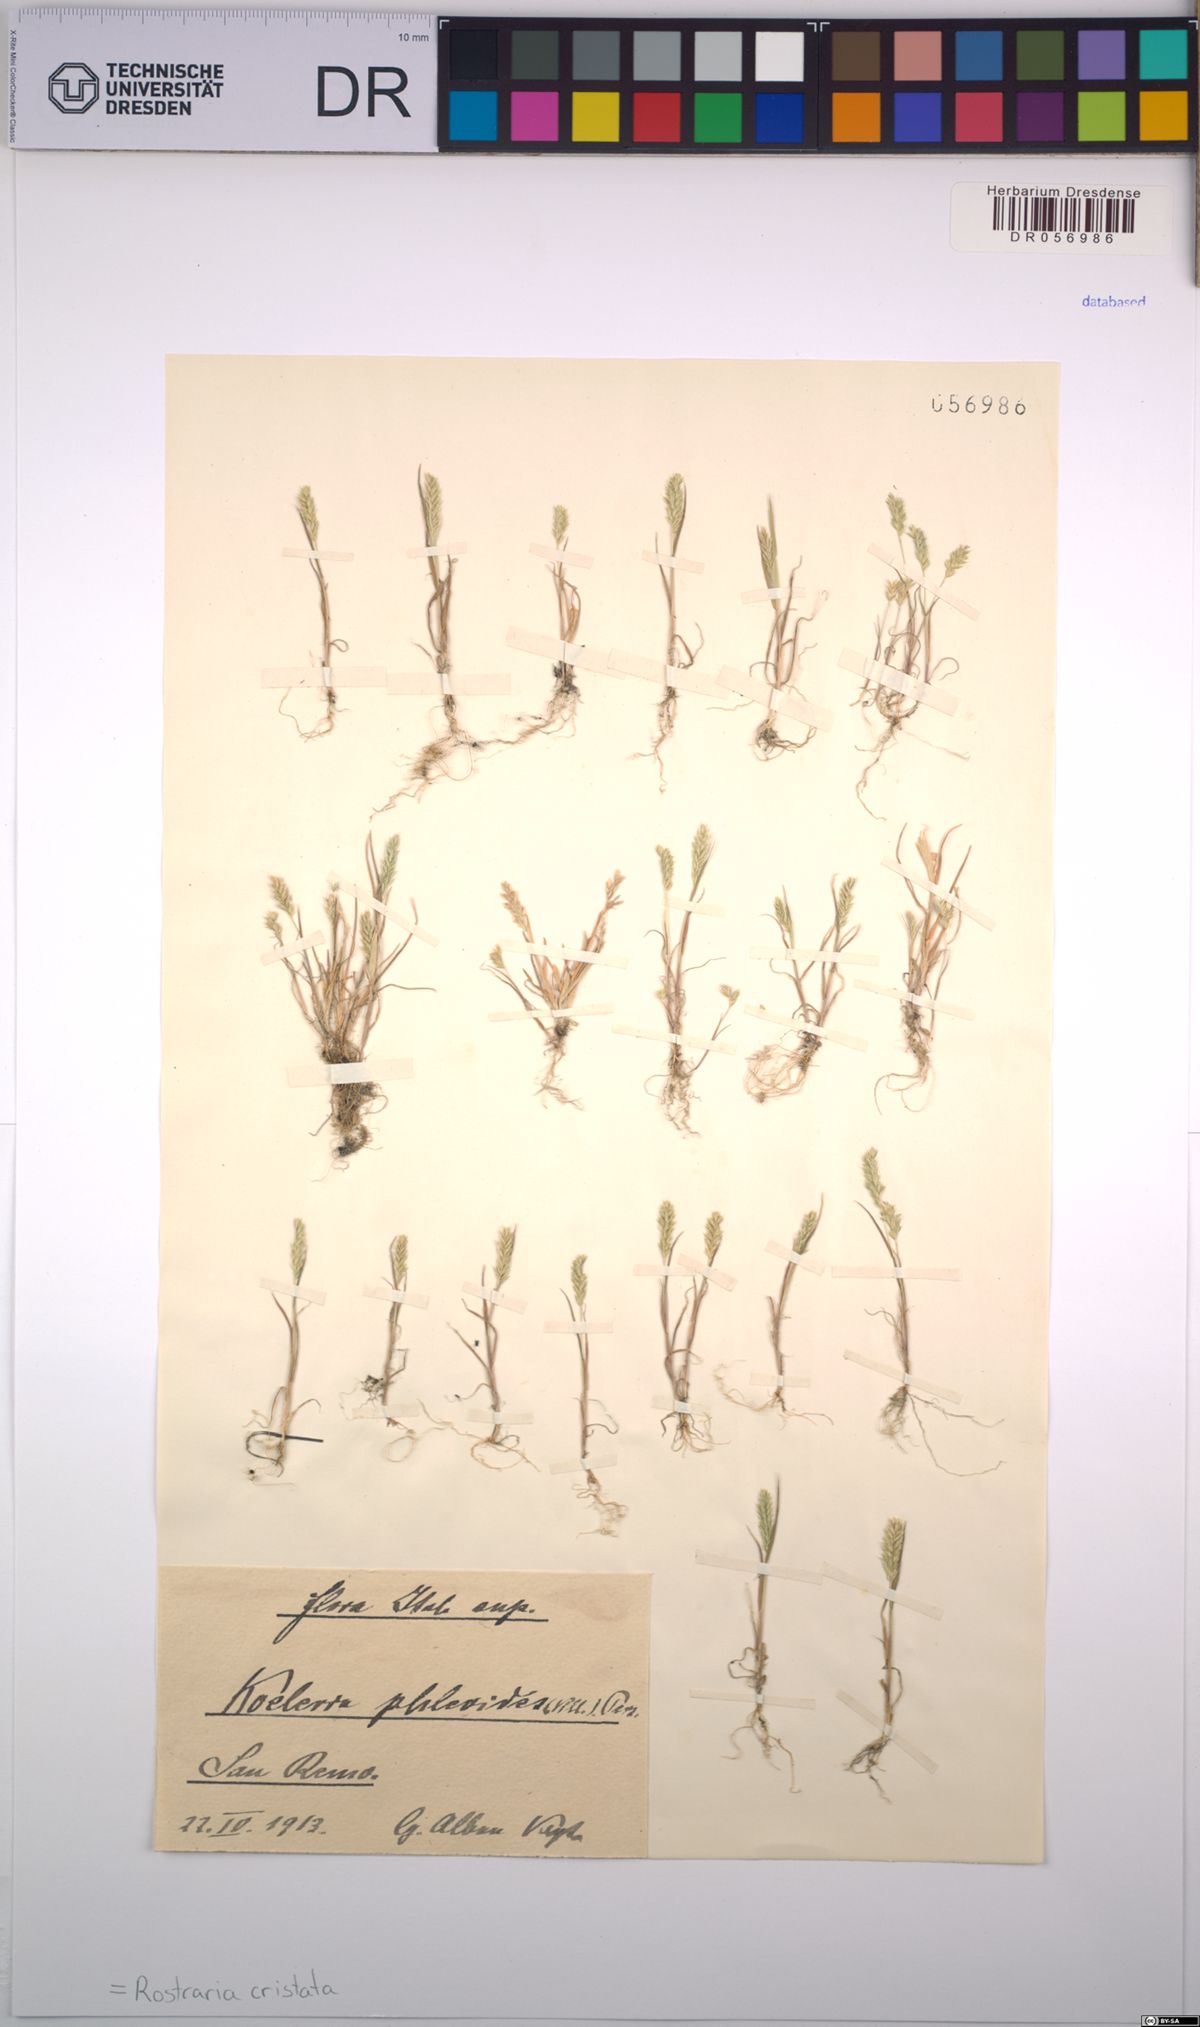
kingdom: Plantae
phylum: Tracheophyta
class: Liliopsida
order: Poales
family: Poaceae
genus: Rostraria
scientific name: Rostraria cristata
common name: Mediterranean hair-grass
